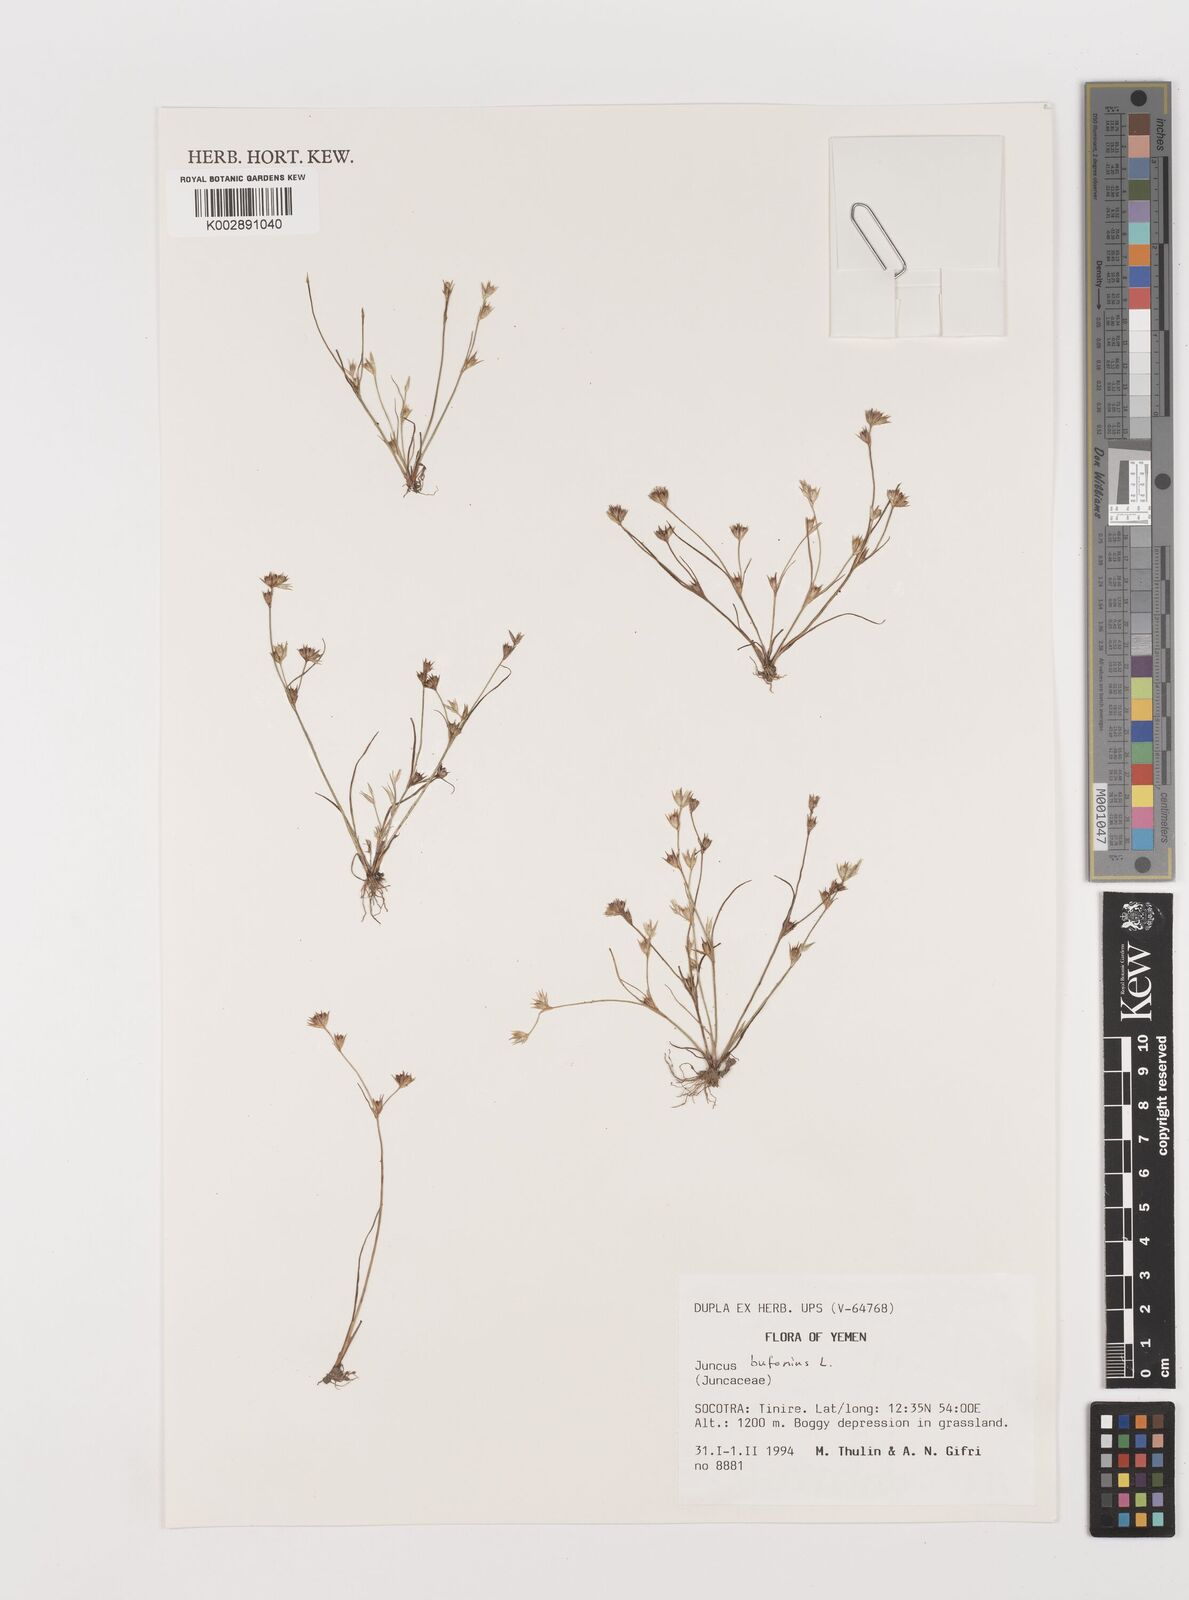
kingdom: Plantae
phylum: Tracheophyta
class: Liliopsida
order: Poales
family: Juncaceae
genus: Juncus
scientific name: Juncus bufonius
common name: Toad rush
